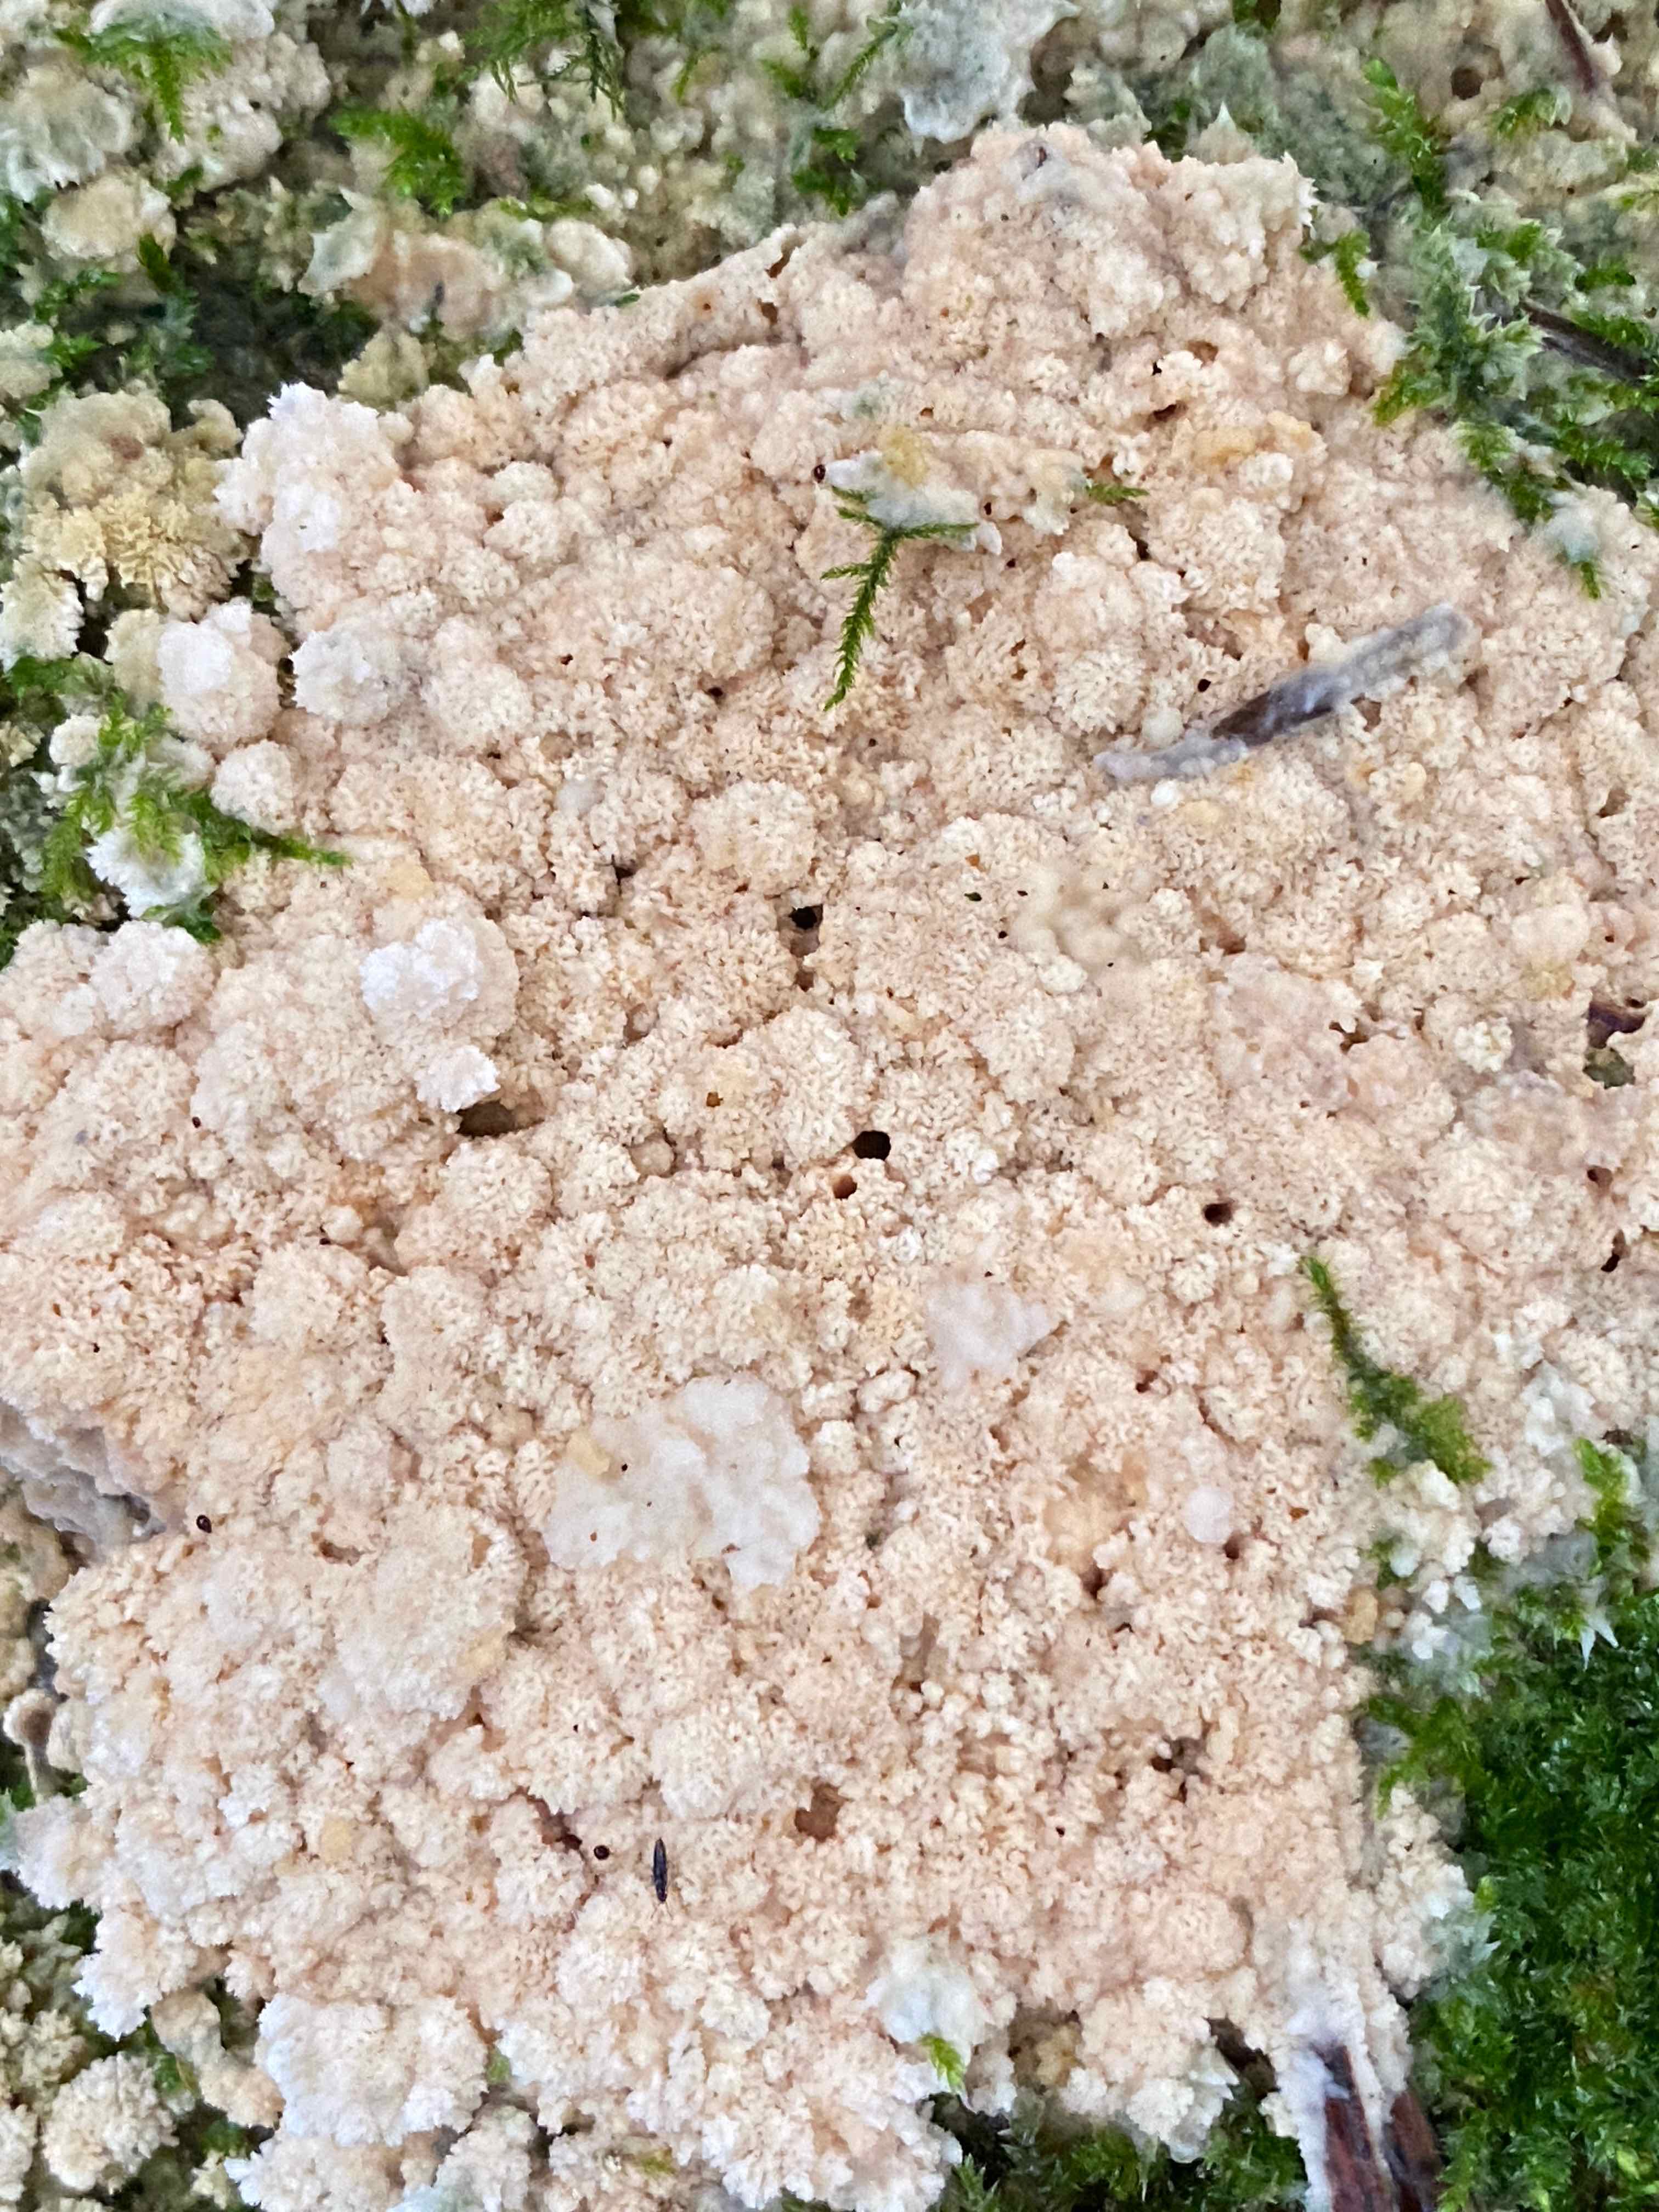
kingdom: Fungi
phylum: Basidiomycota
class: Agaricomycetes
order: Hymenochaetales
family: Schizoporaceae
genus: Schizopora
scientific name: Schizopora paradoxa
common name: hvid tandsvamp
